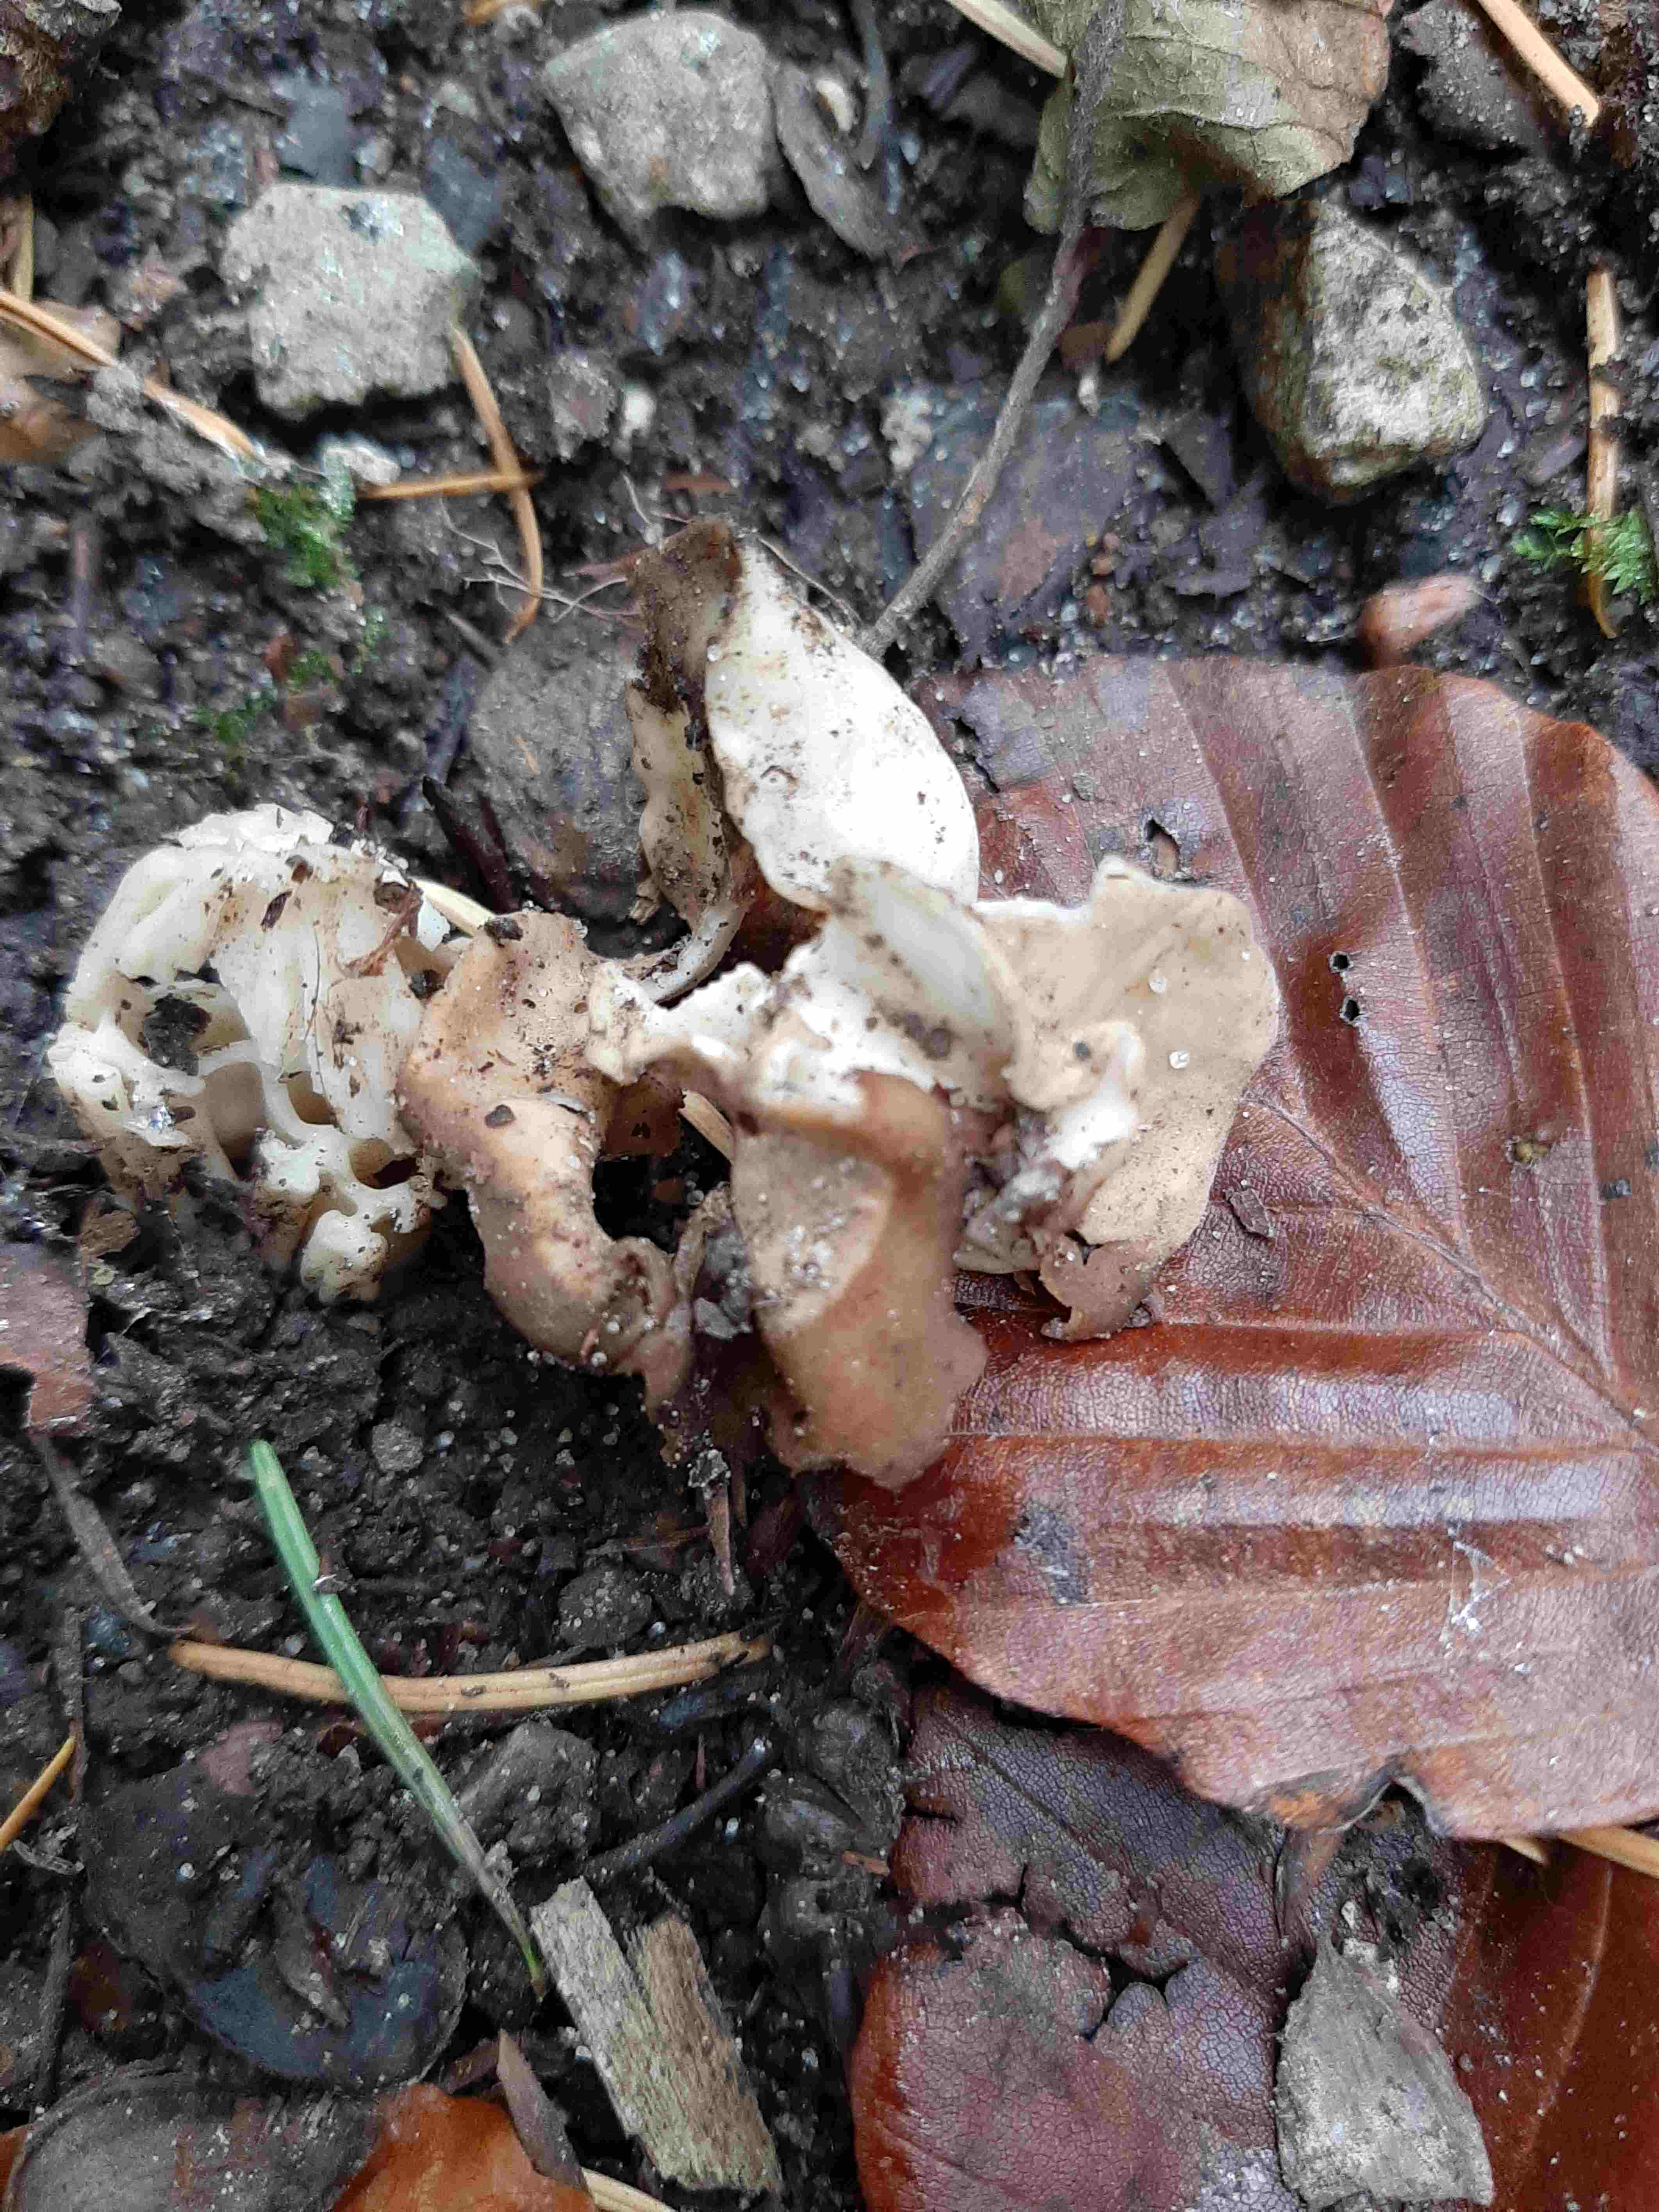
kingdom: Fungi
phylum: Ascomycota
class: Pezizomycetes
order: Pezizales
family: Helvellaceae
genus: Helvella
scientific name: Helvella crispa
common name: kruset foldhat
